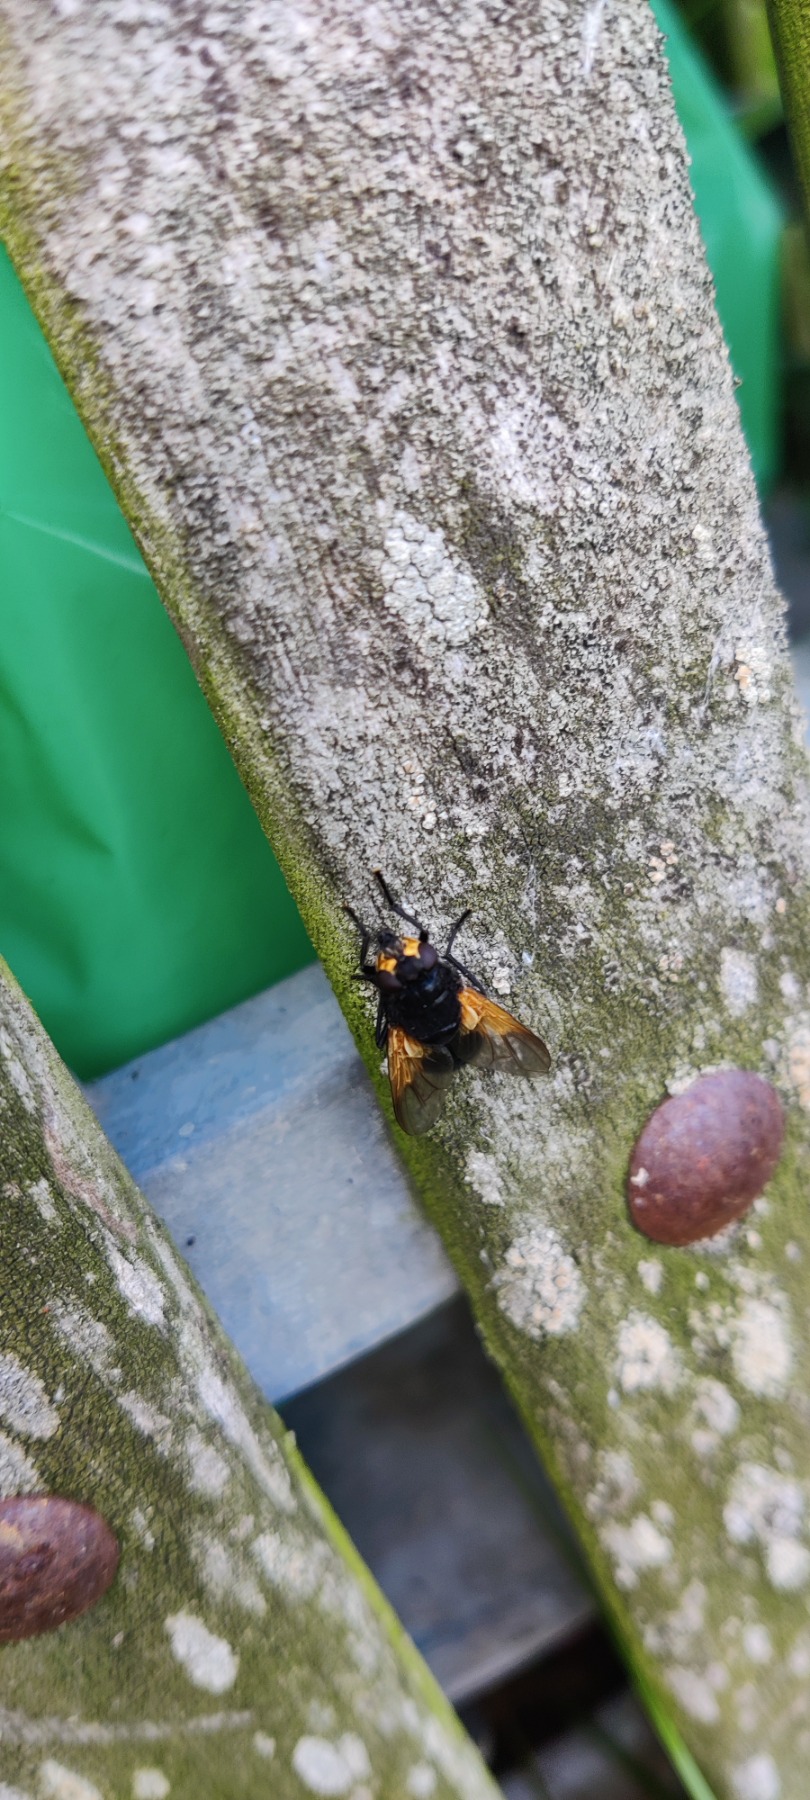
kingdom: Animalia
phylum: Arthropoda
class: Insecta
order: Diptera
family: Muscidae
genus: Mesembrina
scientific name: Mesembrina meridiana
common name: Gulvinget flue
